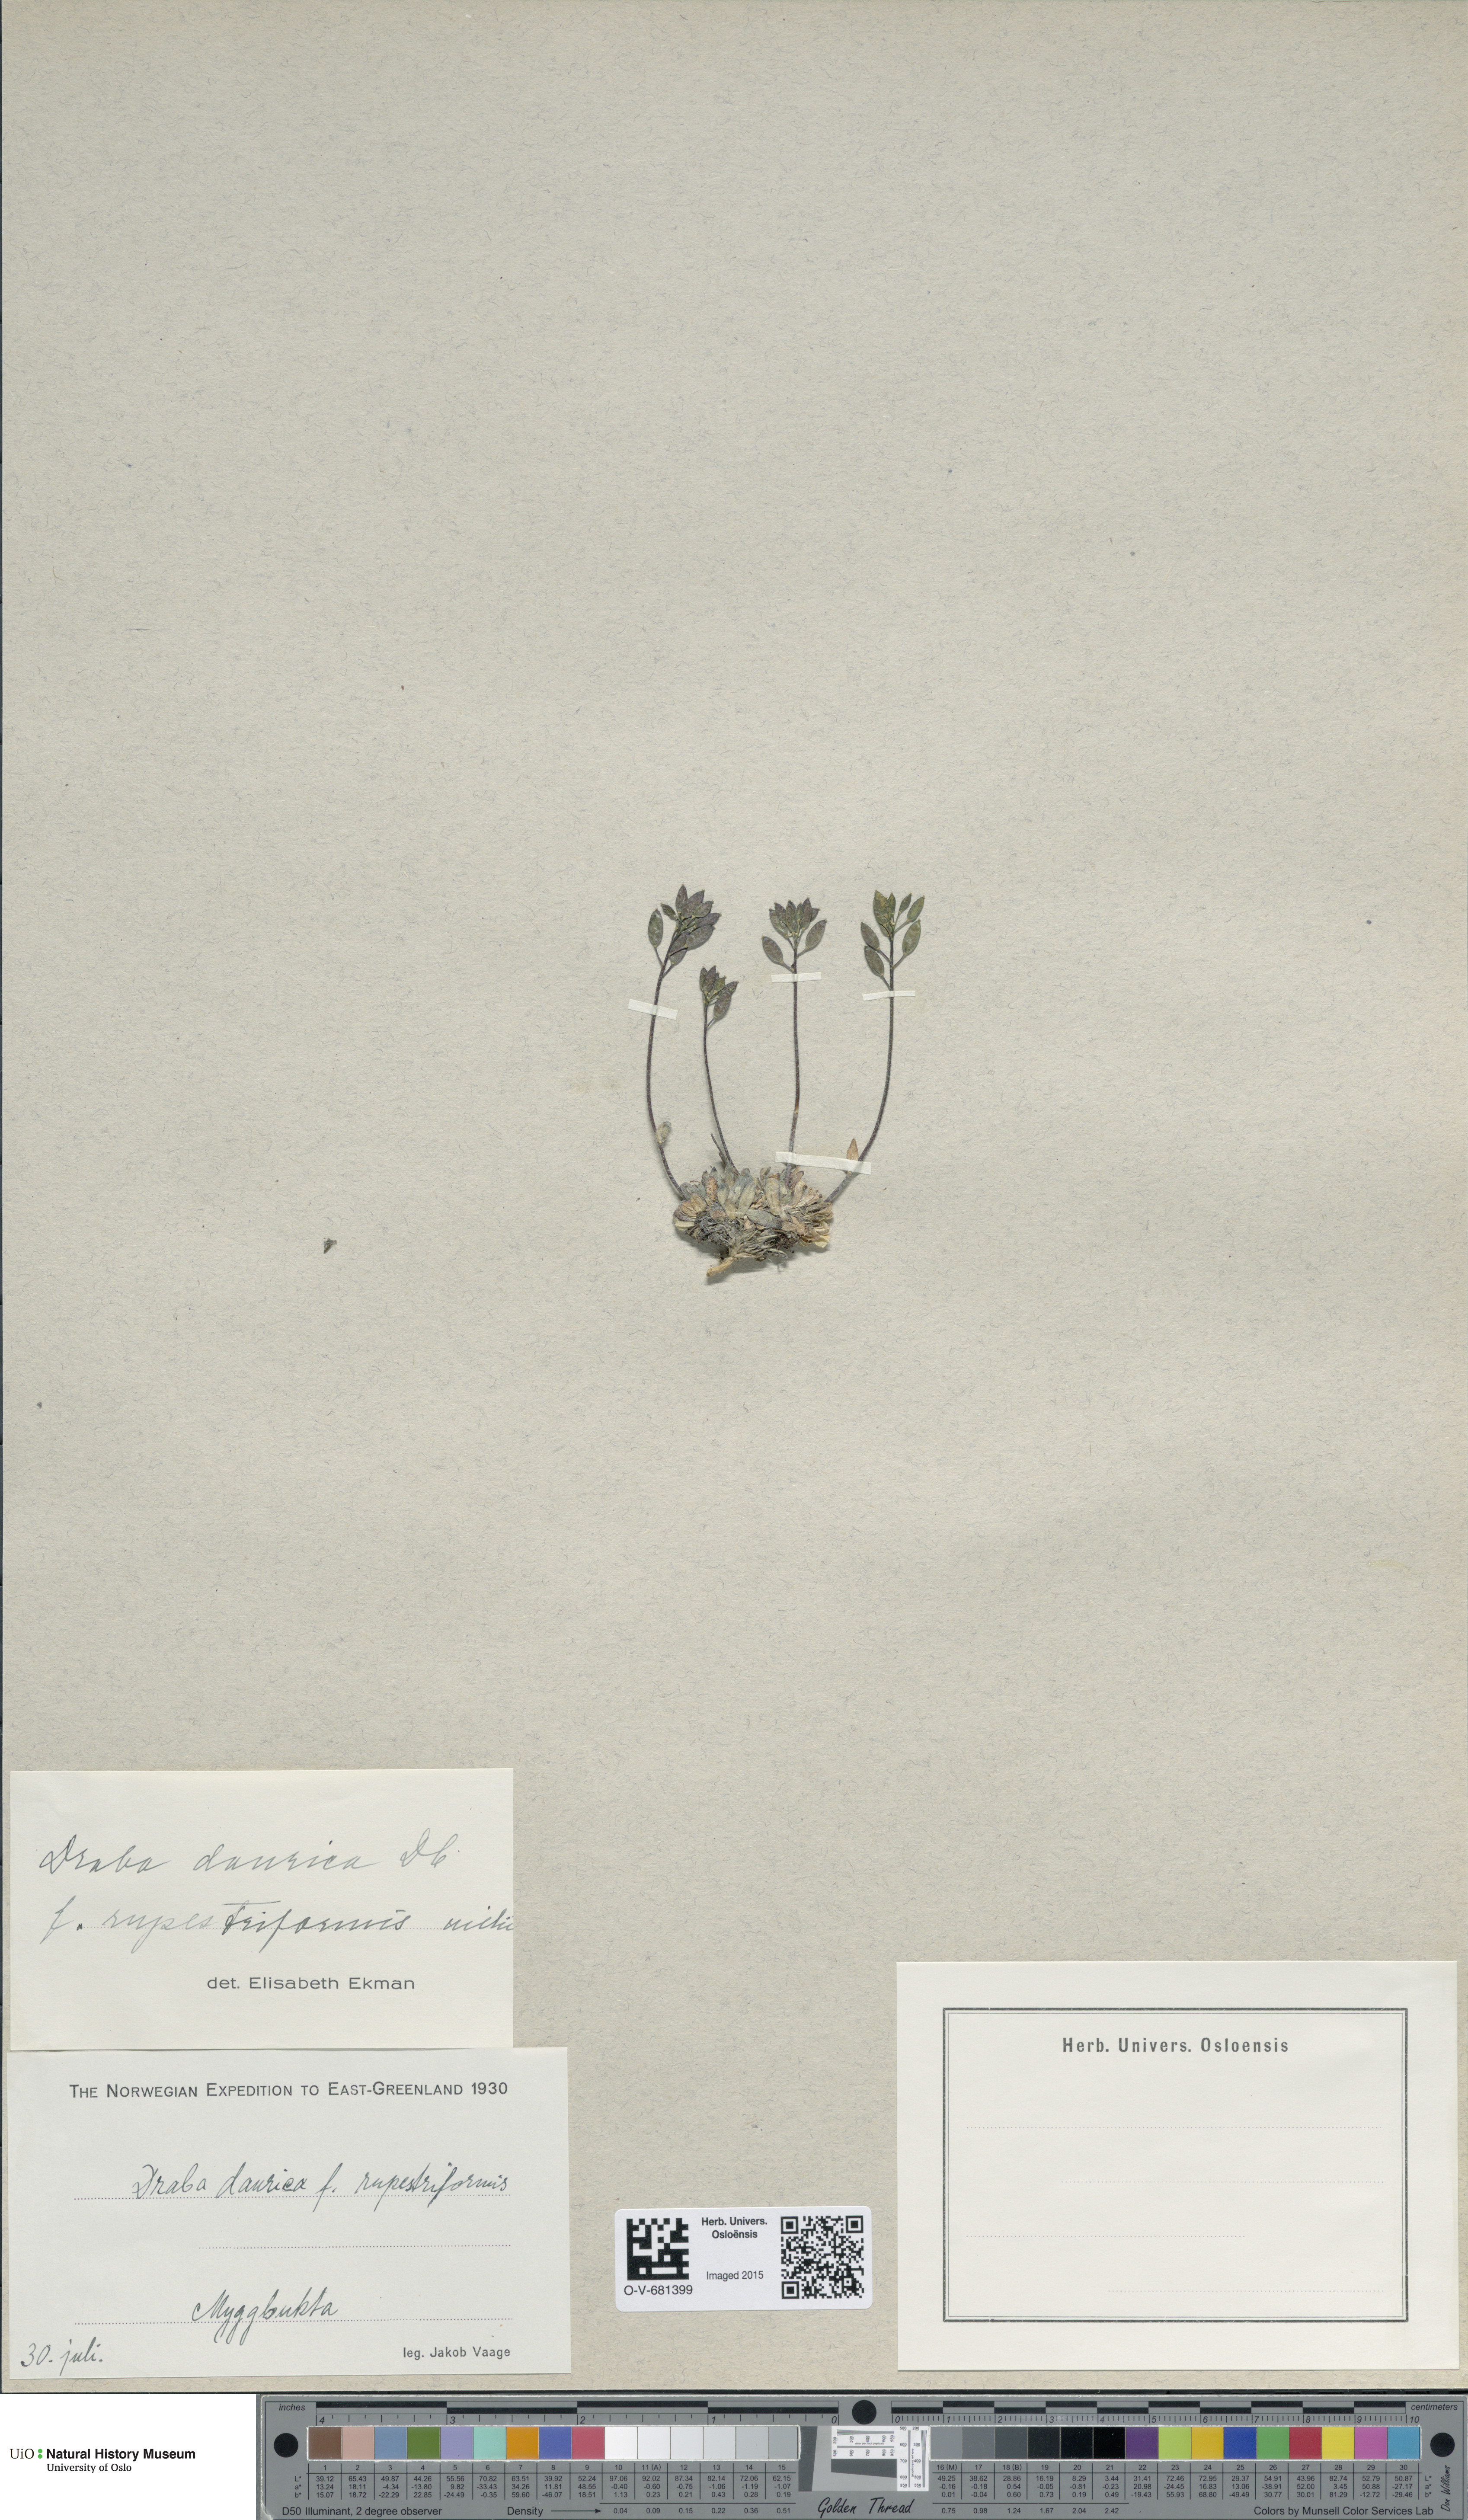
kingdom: Plantae
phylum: Tracheophyta
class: Magnoliopsida
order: Brassicales
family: Brassicaceae
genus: Draba
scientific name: Draba glabella
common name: Glaucous draba
